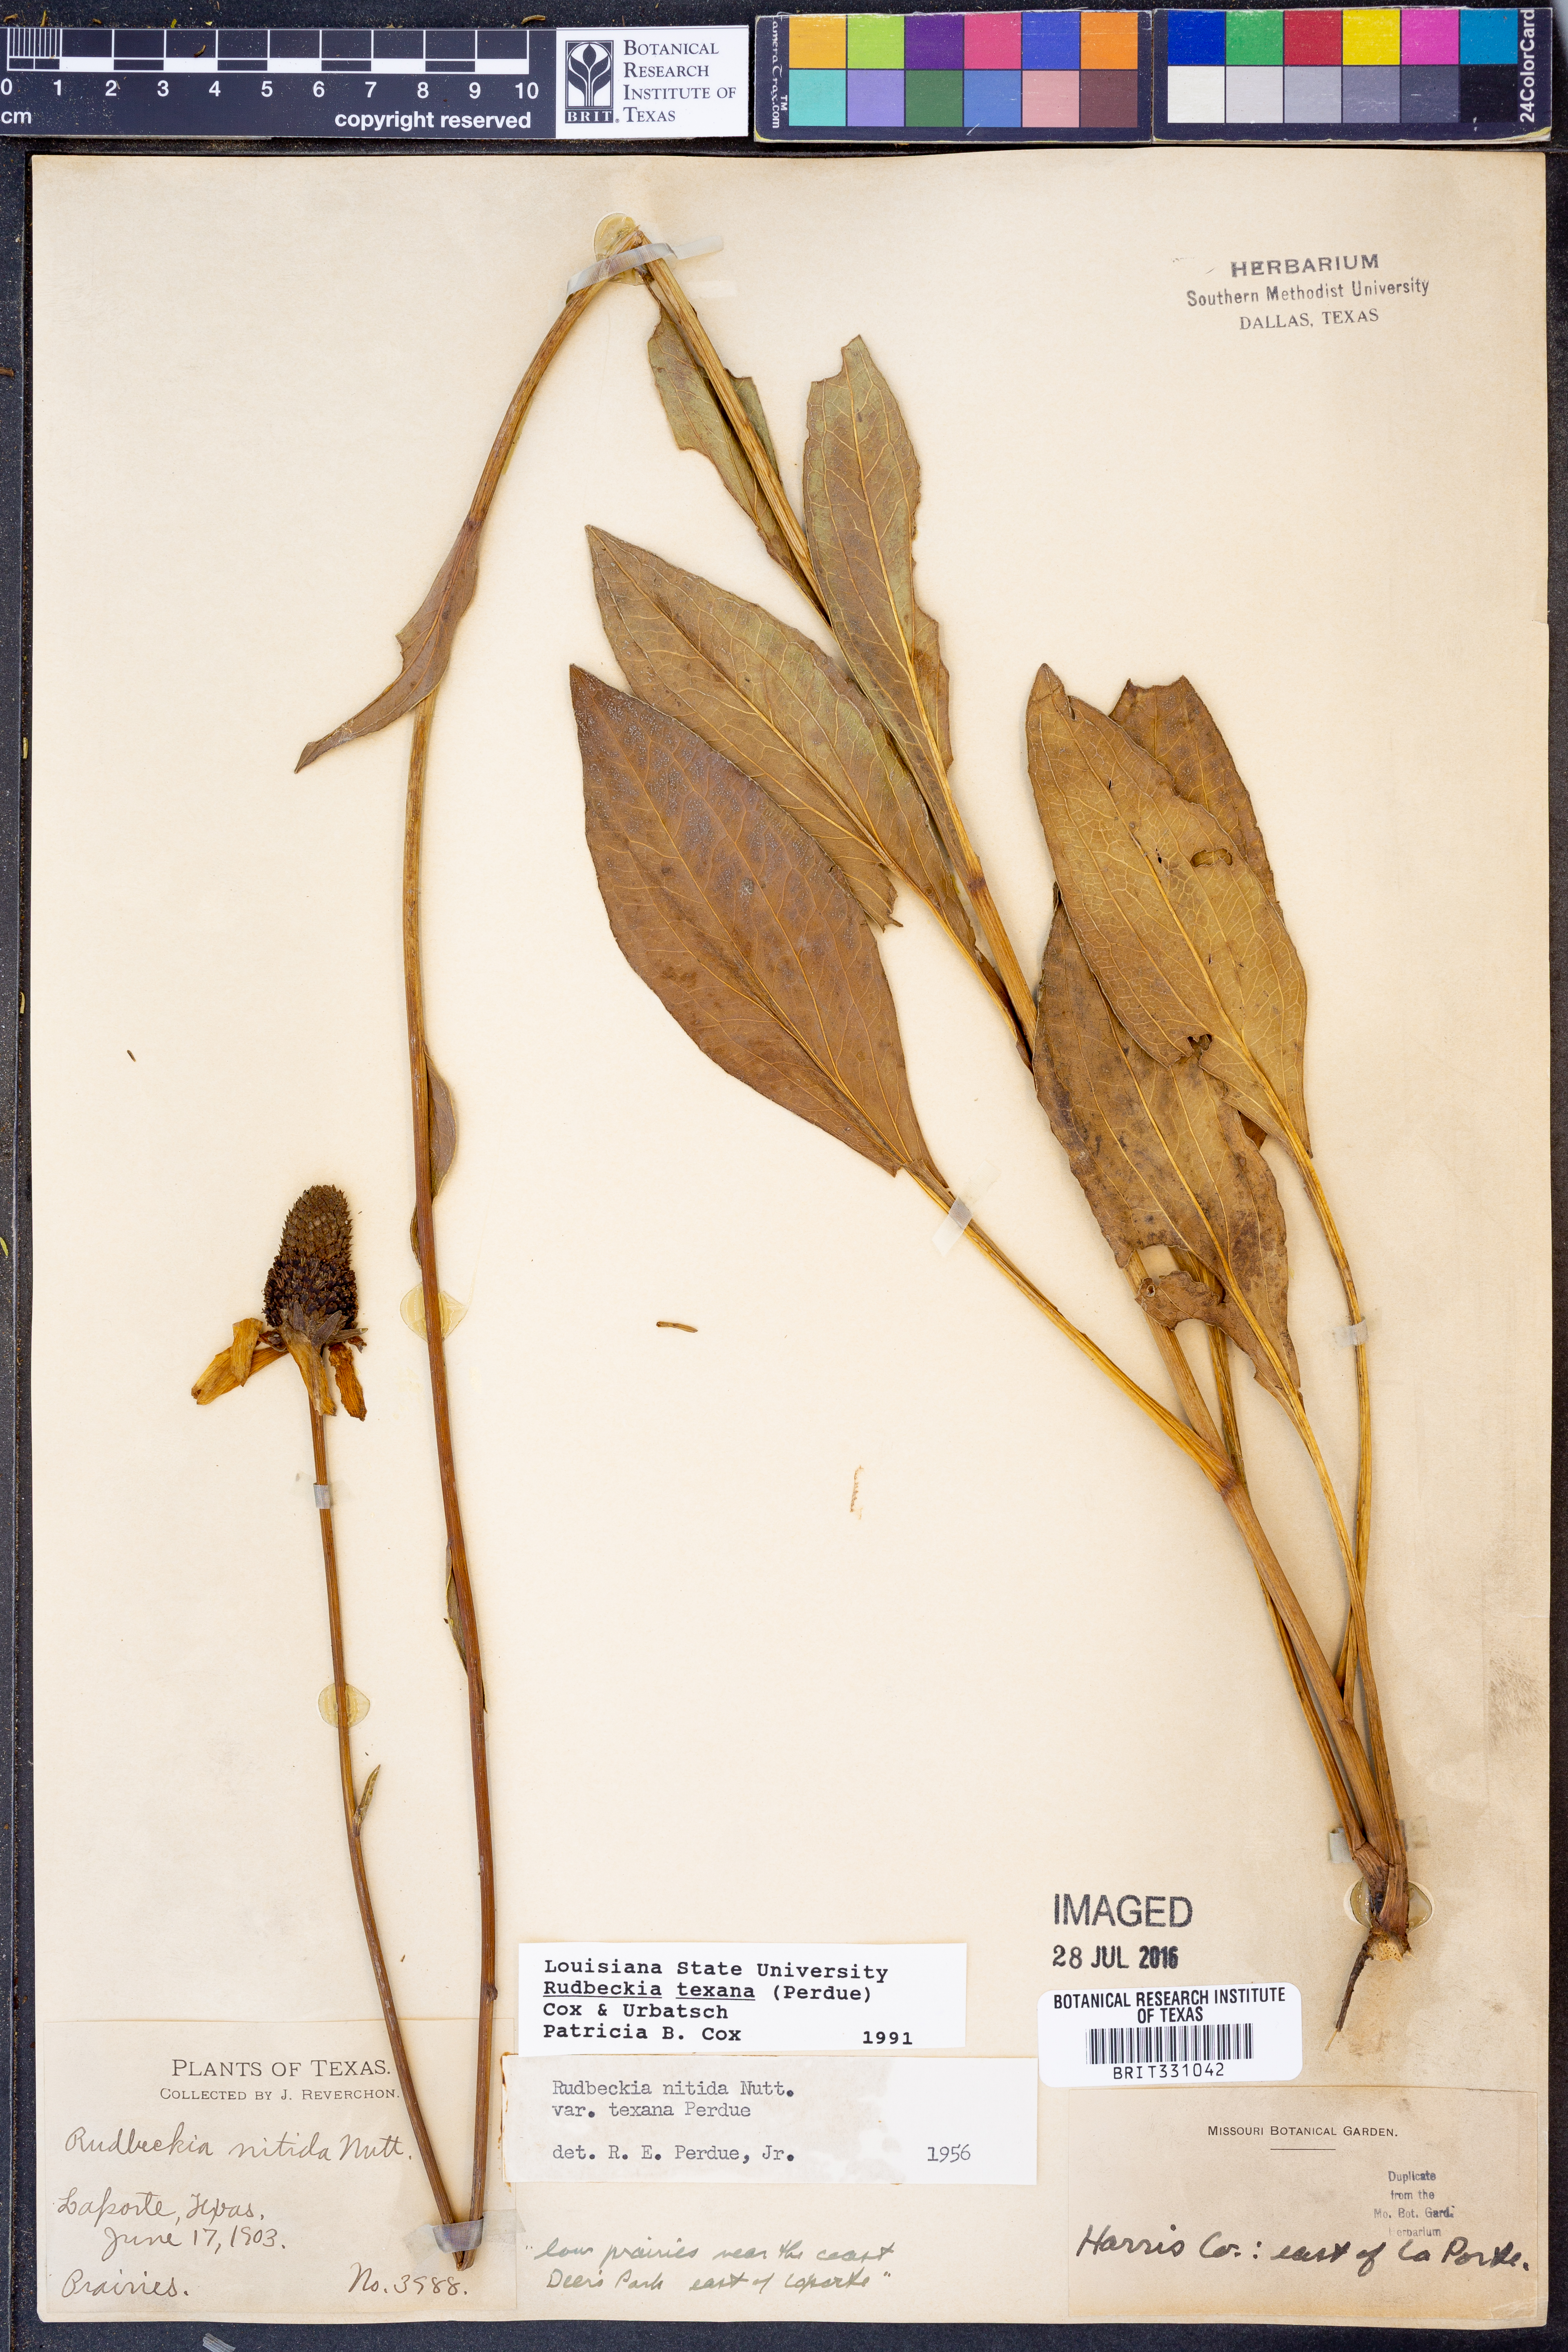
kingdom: Plantae
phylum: Tracheophyta
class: Magnoliopsida
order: Asterales
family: Asteraceae
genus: Rudbeckia
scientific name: Rudbeckia texana
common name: Texas coneflower
